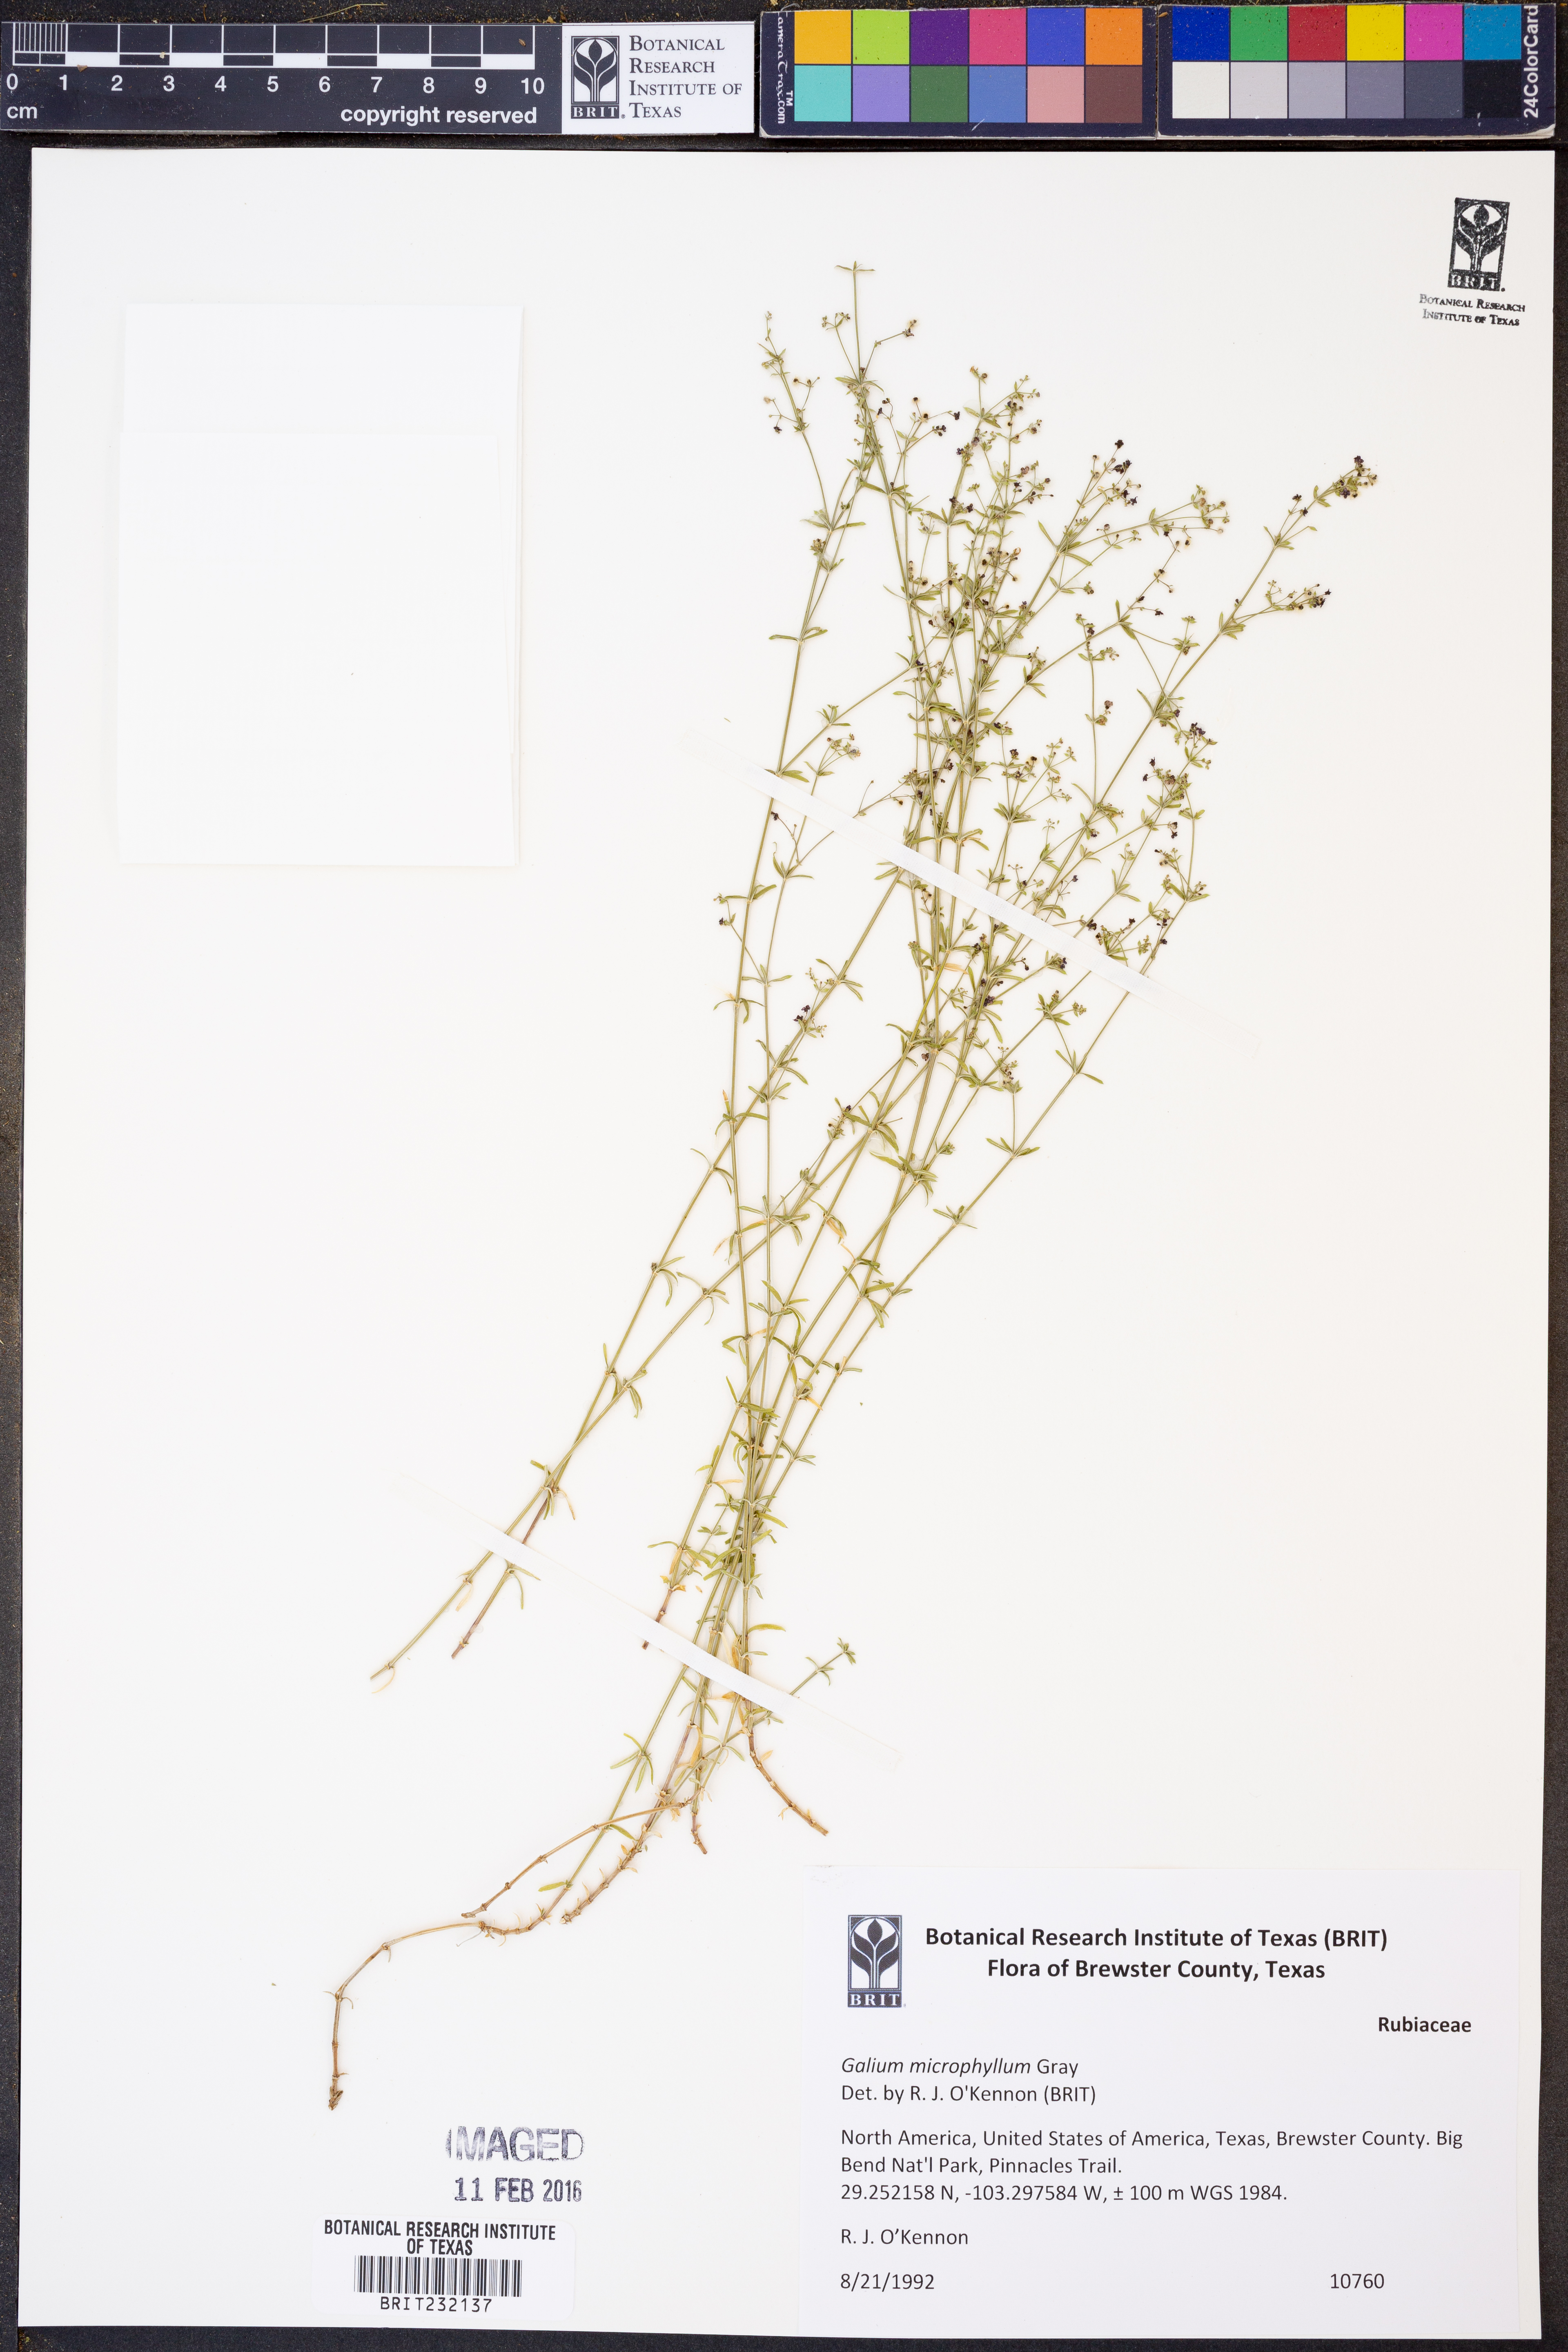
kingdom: Plantae
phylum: Tracheophyta
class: Magnoliopsida
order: Gentianales
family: Rubiaceae
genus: Galium
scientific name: Galium microphyllum
